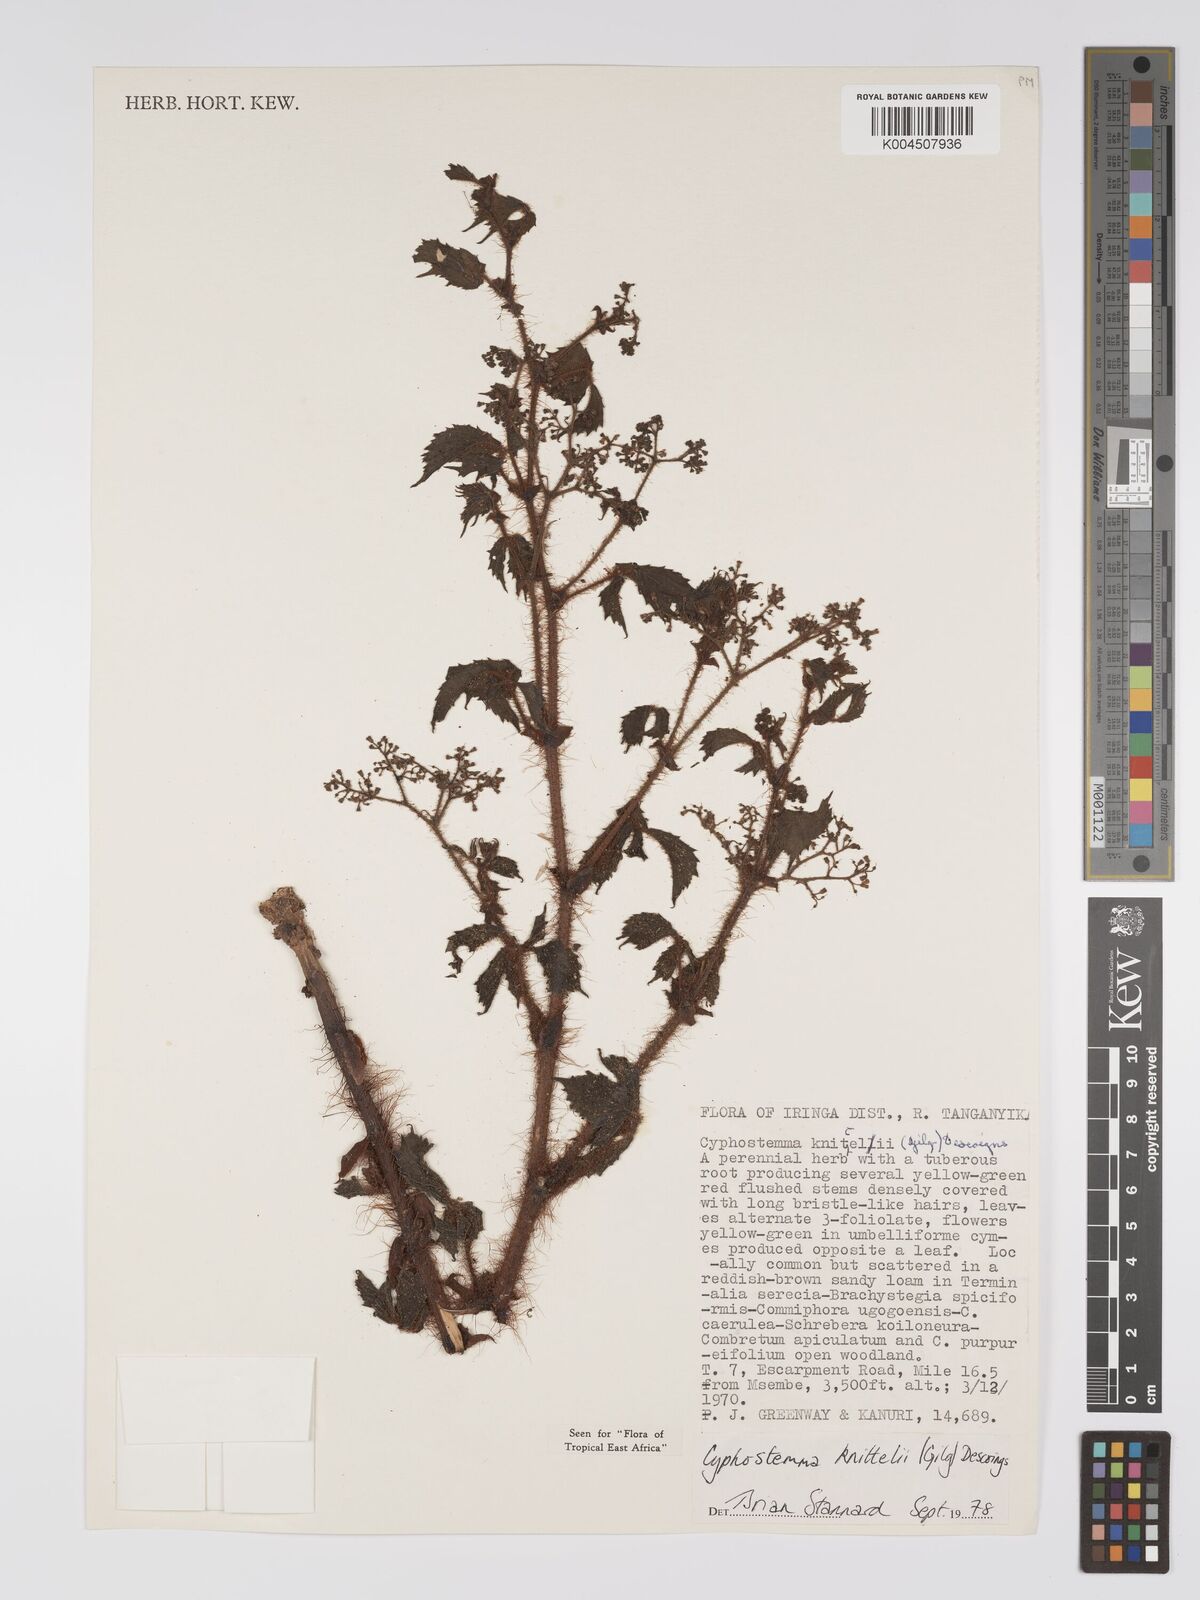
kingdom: Plantae
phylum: Tracheophyta
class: Magnoliopsida
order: Vitales
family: Vitaceae
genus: Cyphostemma
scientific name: Cyphostemma knittelii
